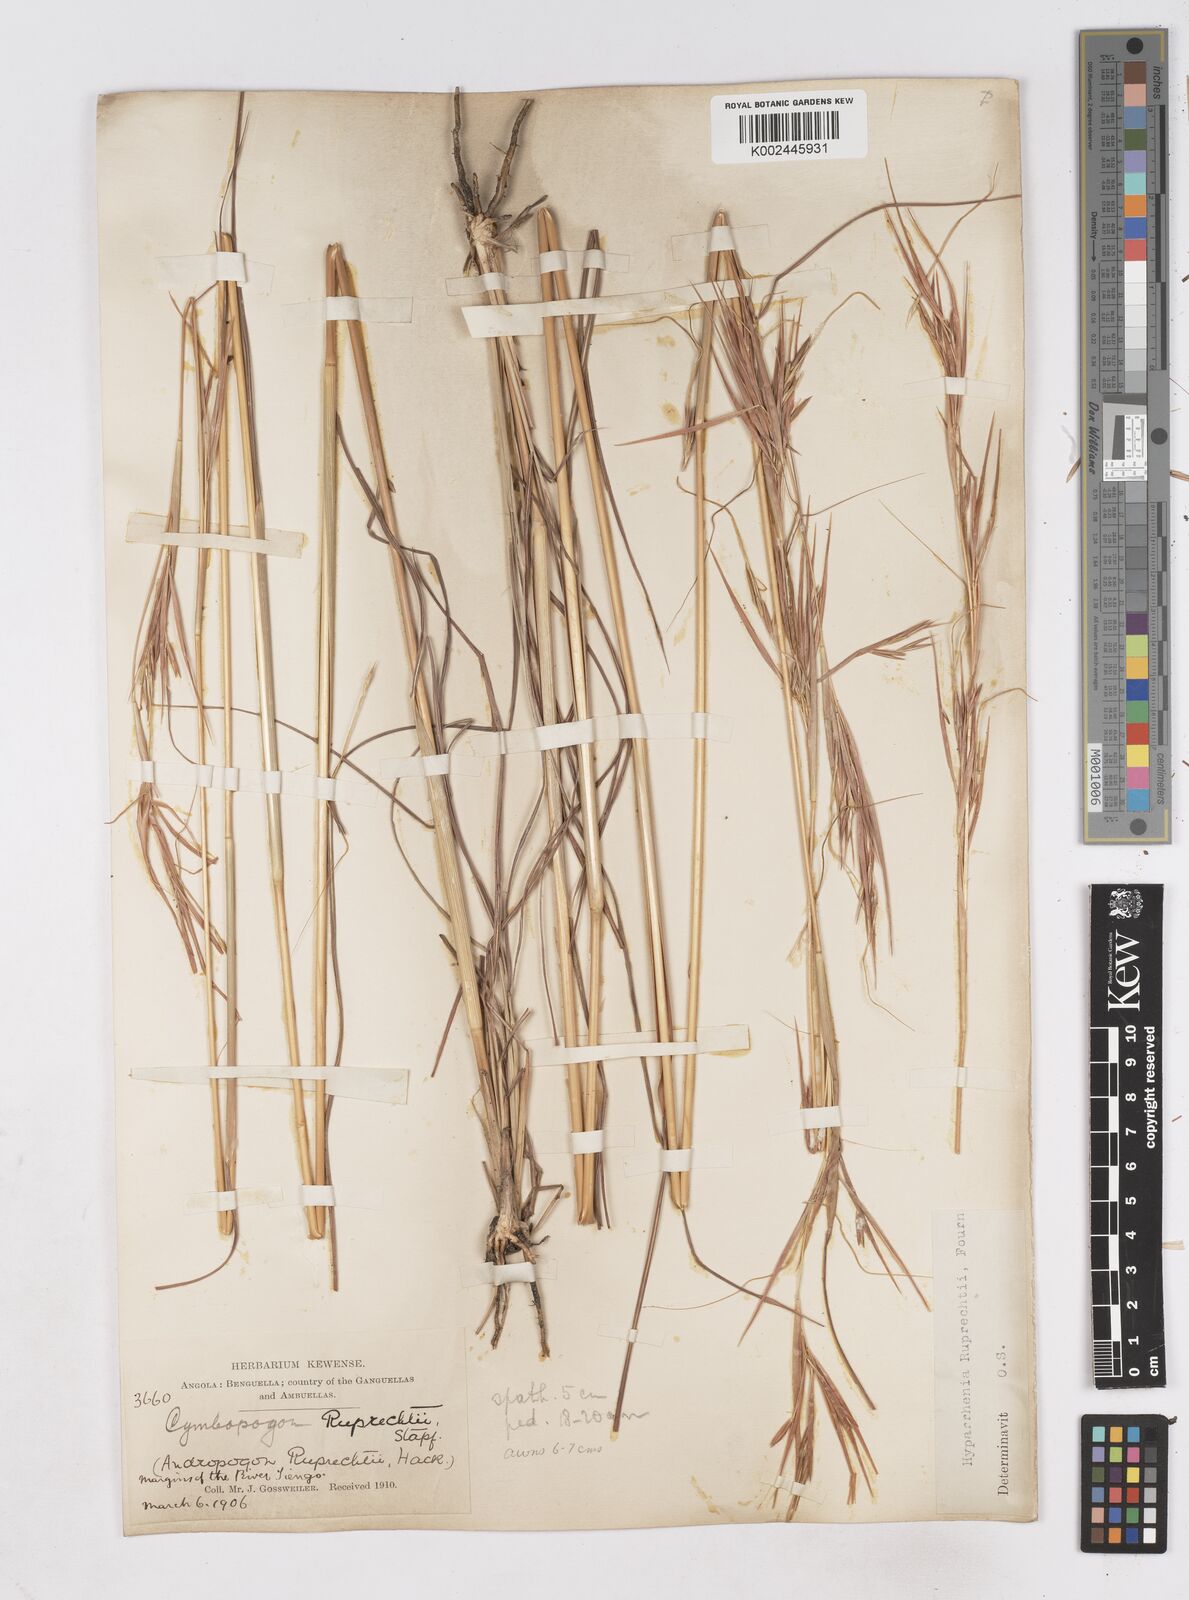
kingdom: Plantae
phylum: Tracheophyta
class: Liliopsida
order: Poales
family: Poaceae
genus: Hyperthelia
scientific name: Hyperthelia dissoluta
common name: Yellow thatching grass
